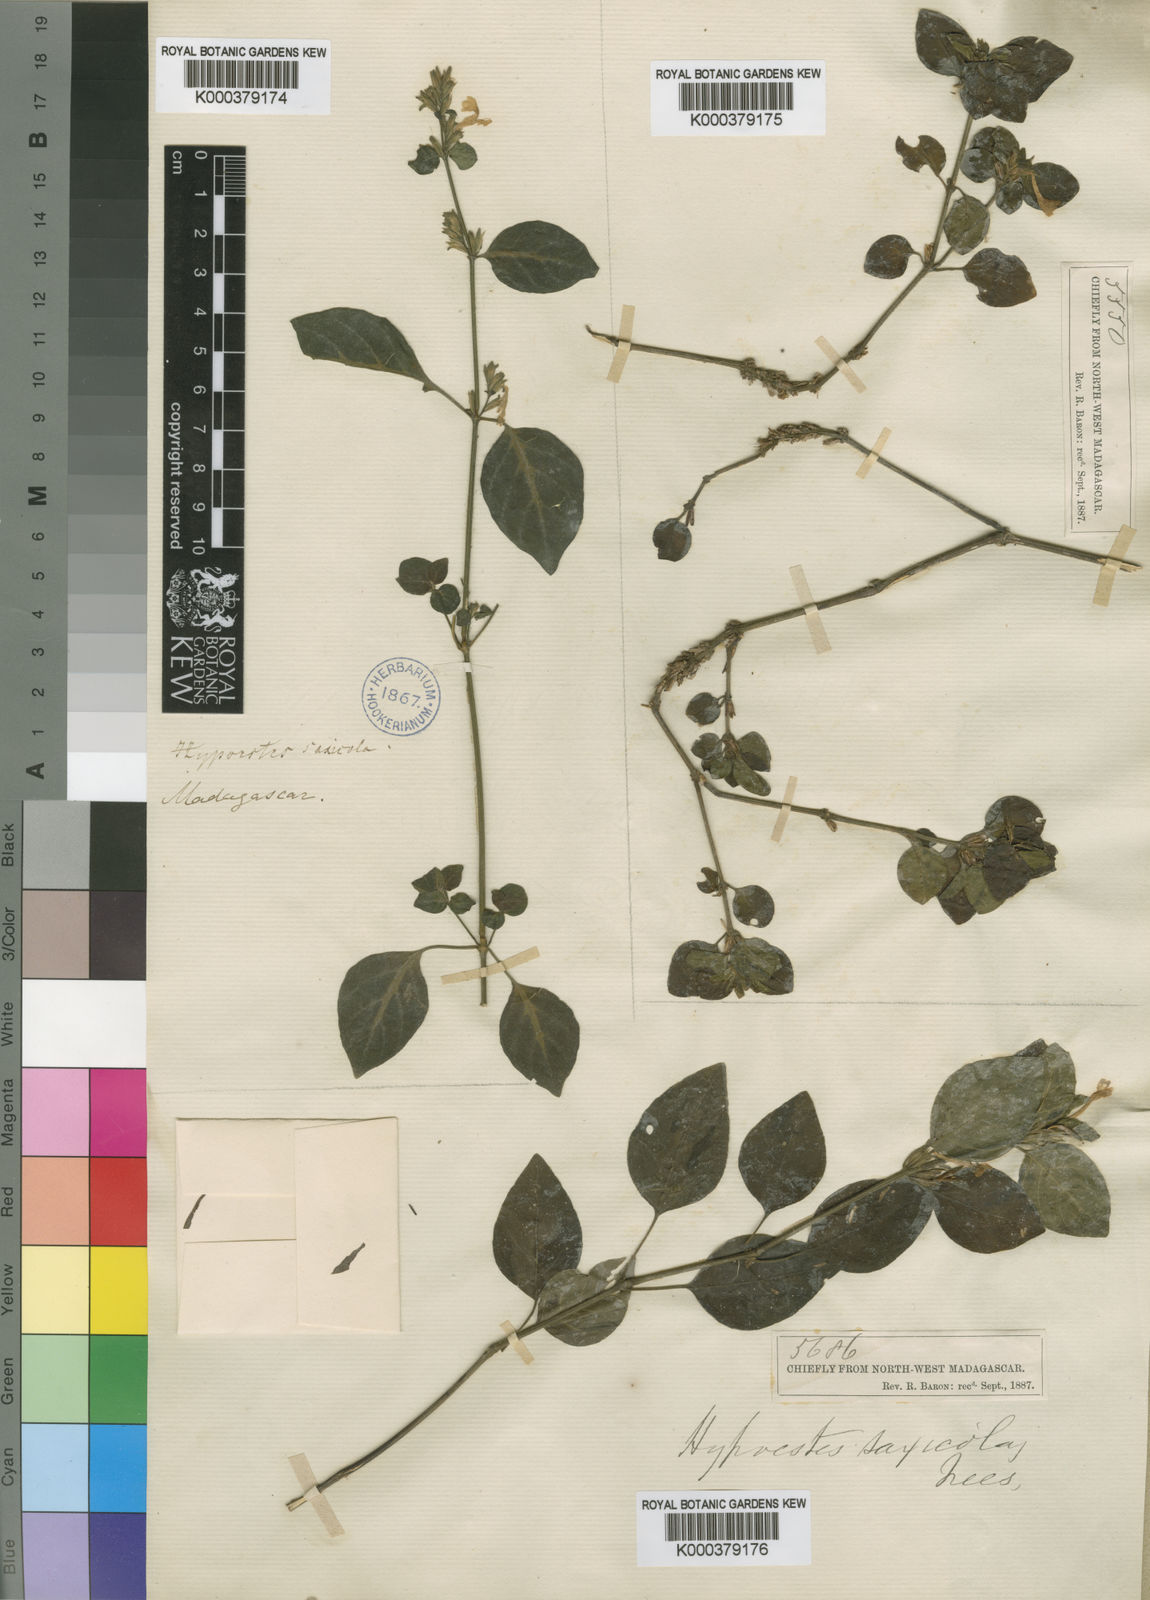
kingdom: Plantae
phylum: Tracheophyta
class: Magnoliopsida
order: Lamiales
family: Acanthaceae
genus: Hypoestes
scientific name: Hypoestes saxicola
